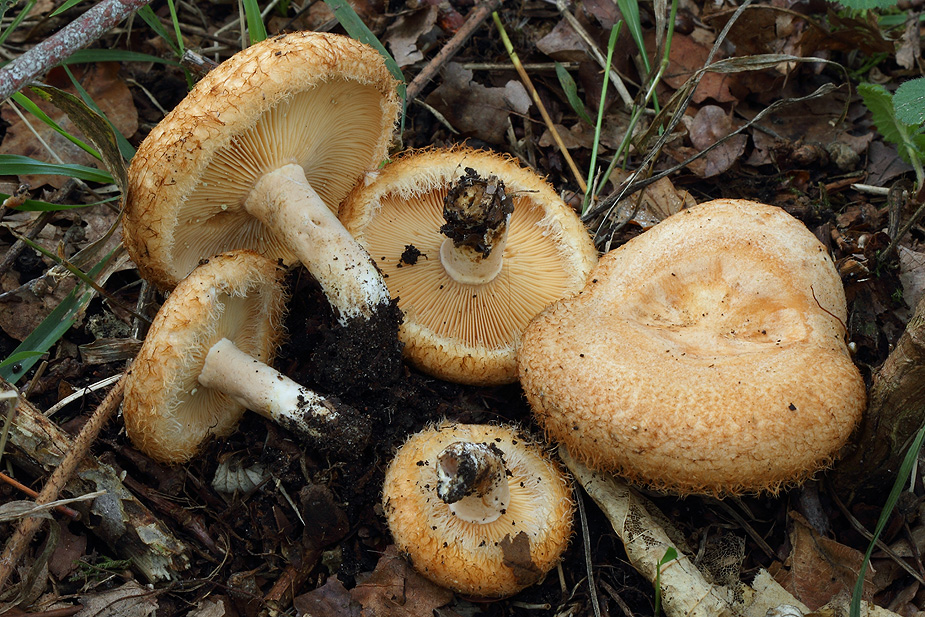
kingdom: Fungi
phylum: Basidiomycota
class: Agaricomycetes
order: Russulales
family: Russulaceae
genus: Lactarius
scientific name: Lactarius mairei
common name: børstehåret mælkehat
